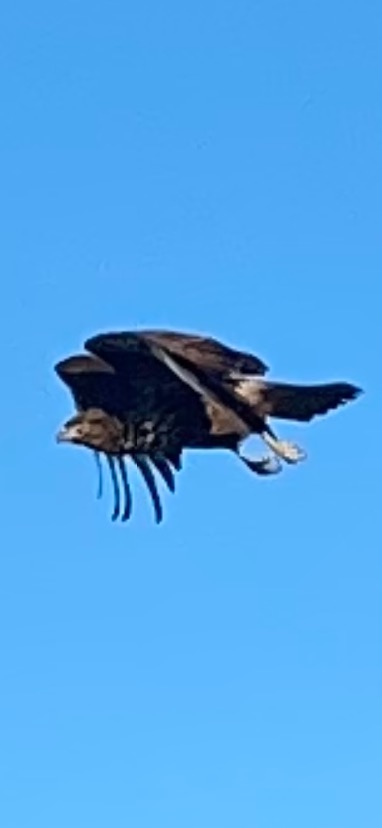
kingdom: Animalia
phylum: Chordata
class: Aves
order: Accipitriformes
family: Accipitridae
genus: Buteo
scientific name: Buteo buteo
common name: Musvåge
